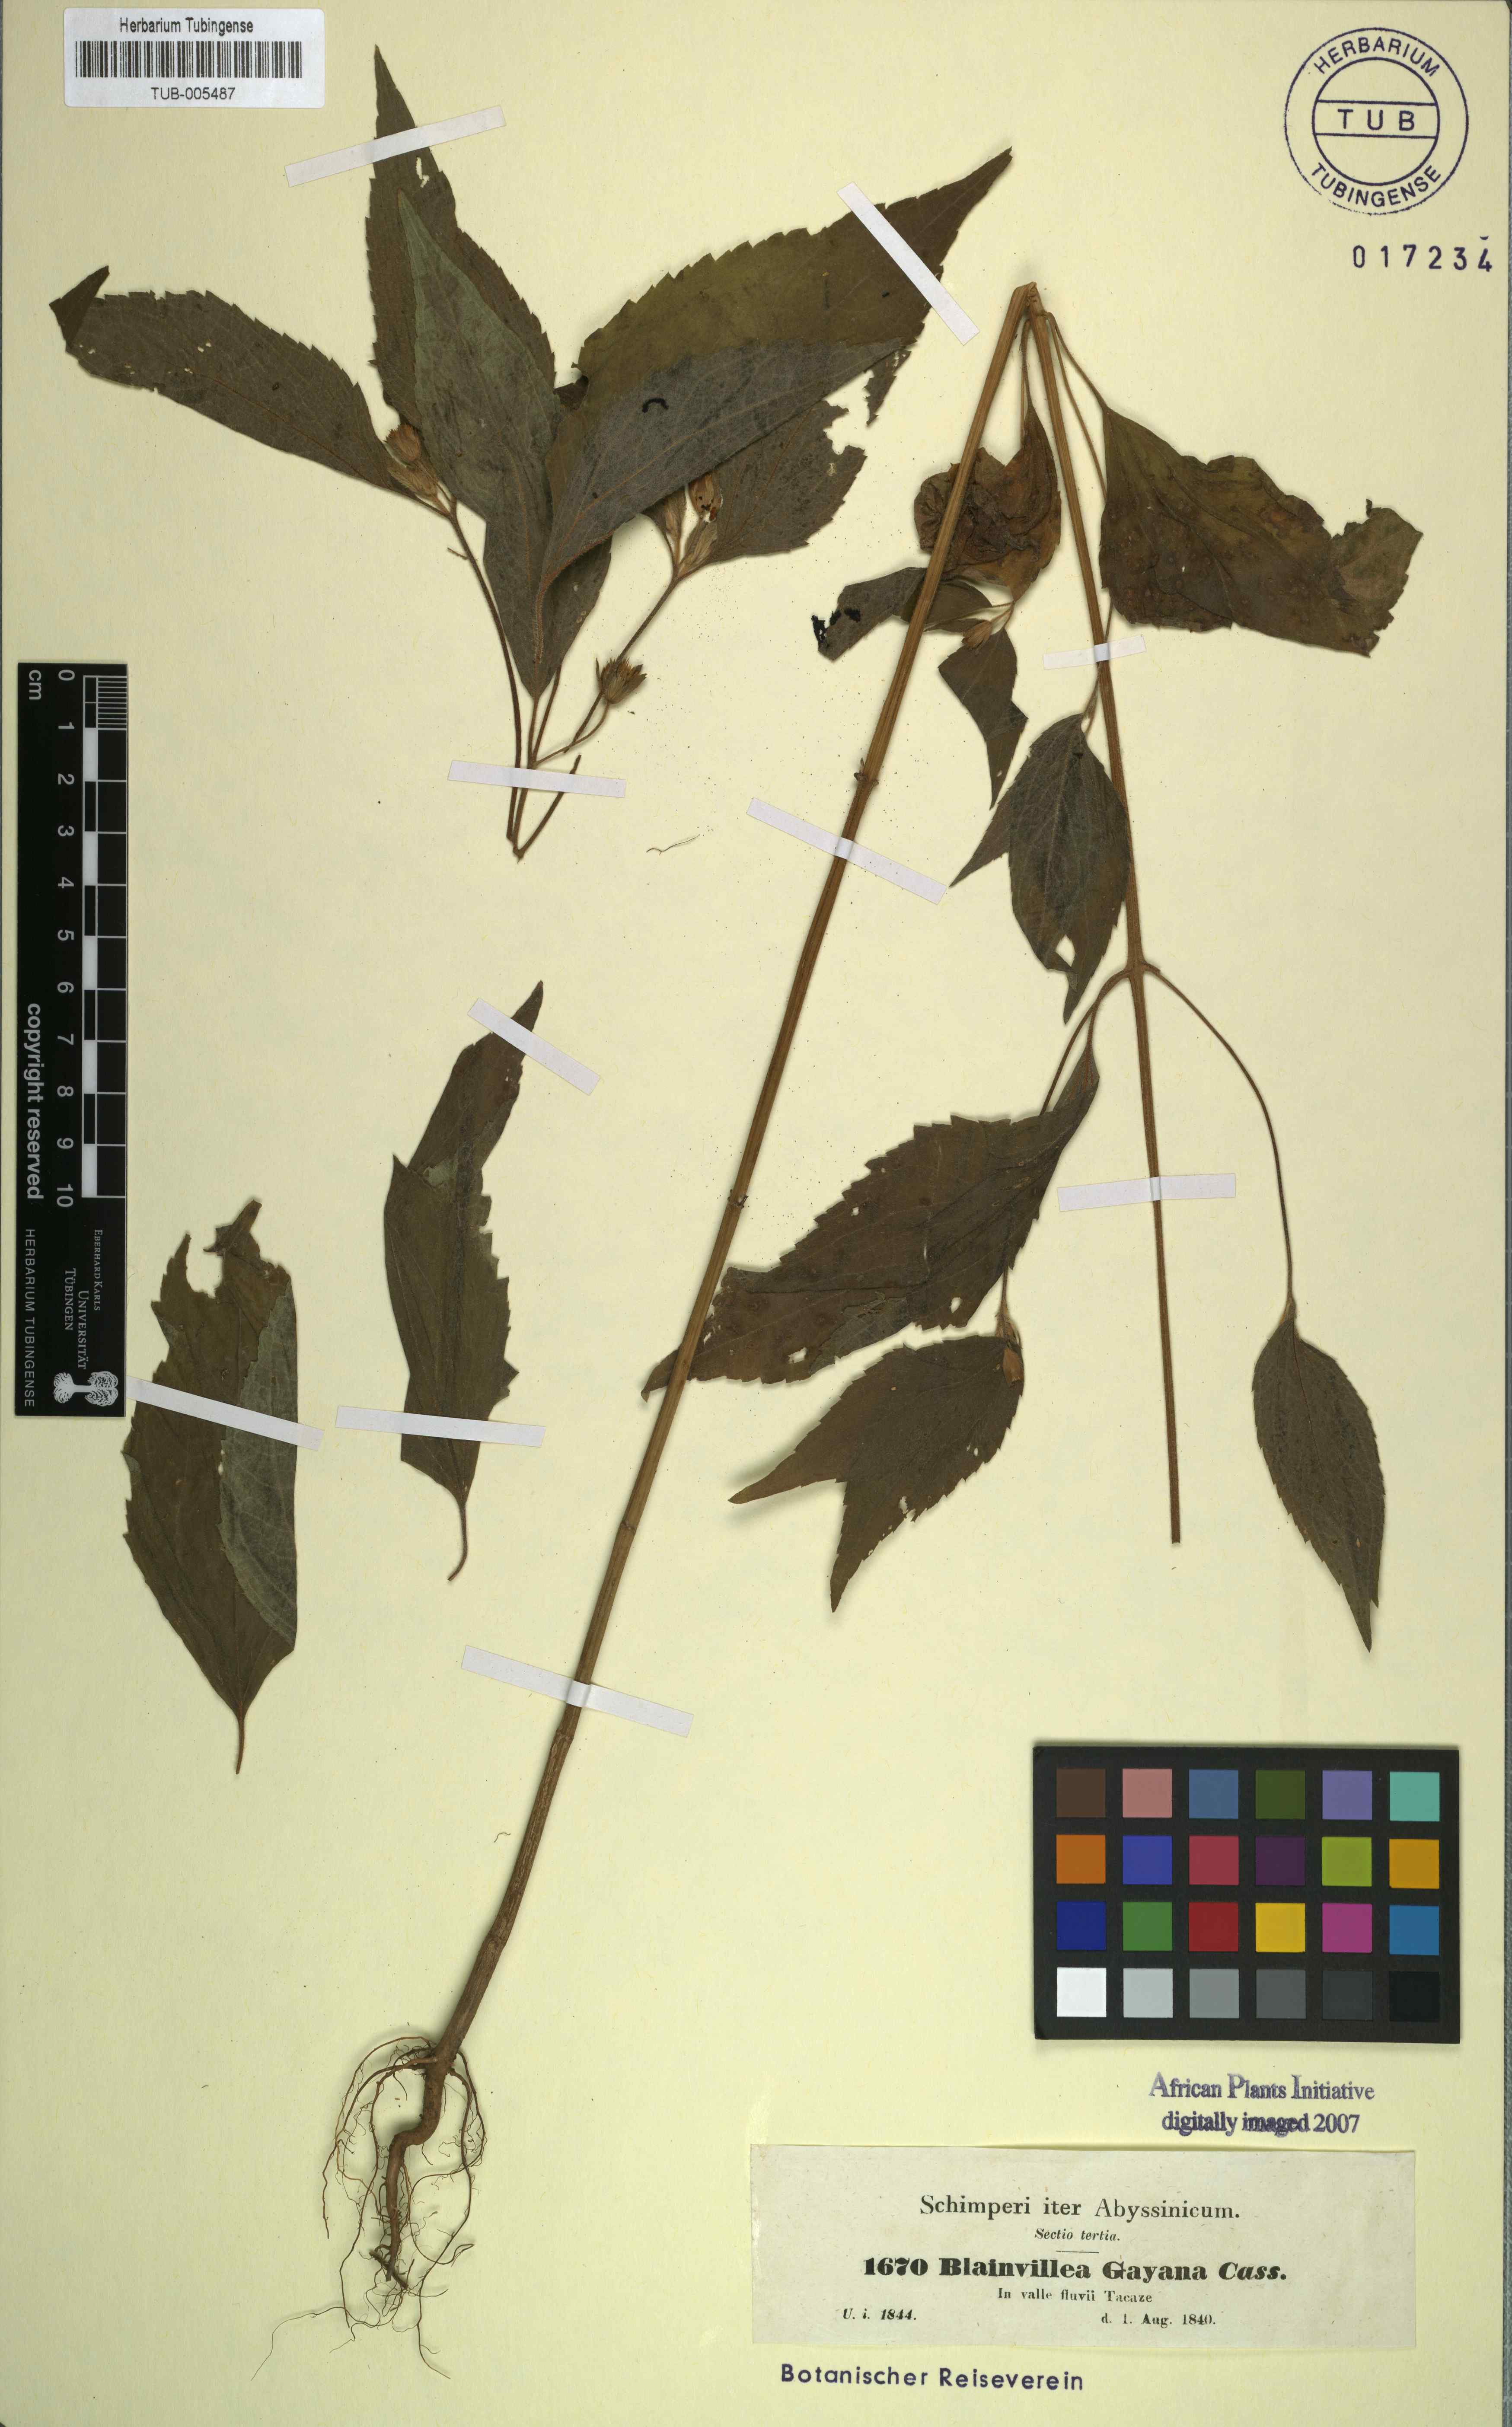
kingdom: Plantae
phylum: Tracheophyta
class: Magnoliopsida
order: Asterales
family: Asteraceae
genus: Blainvillea
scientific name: Blainvillea gayana
